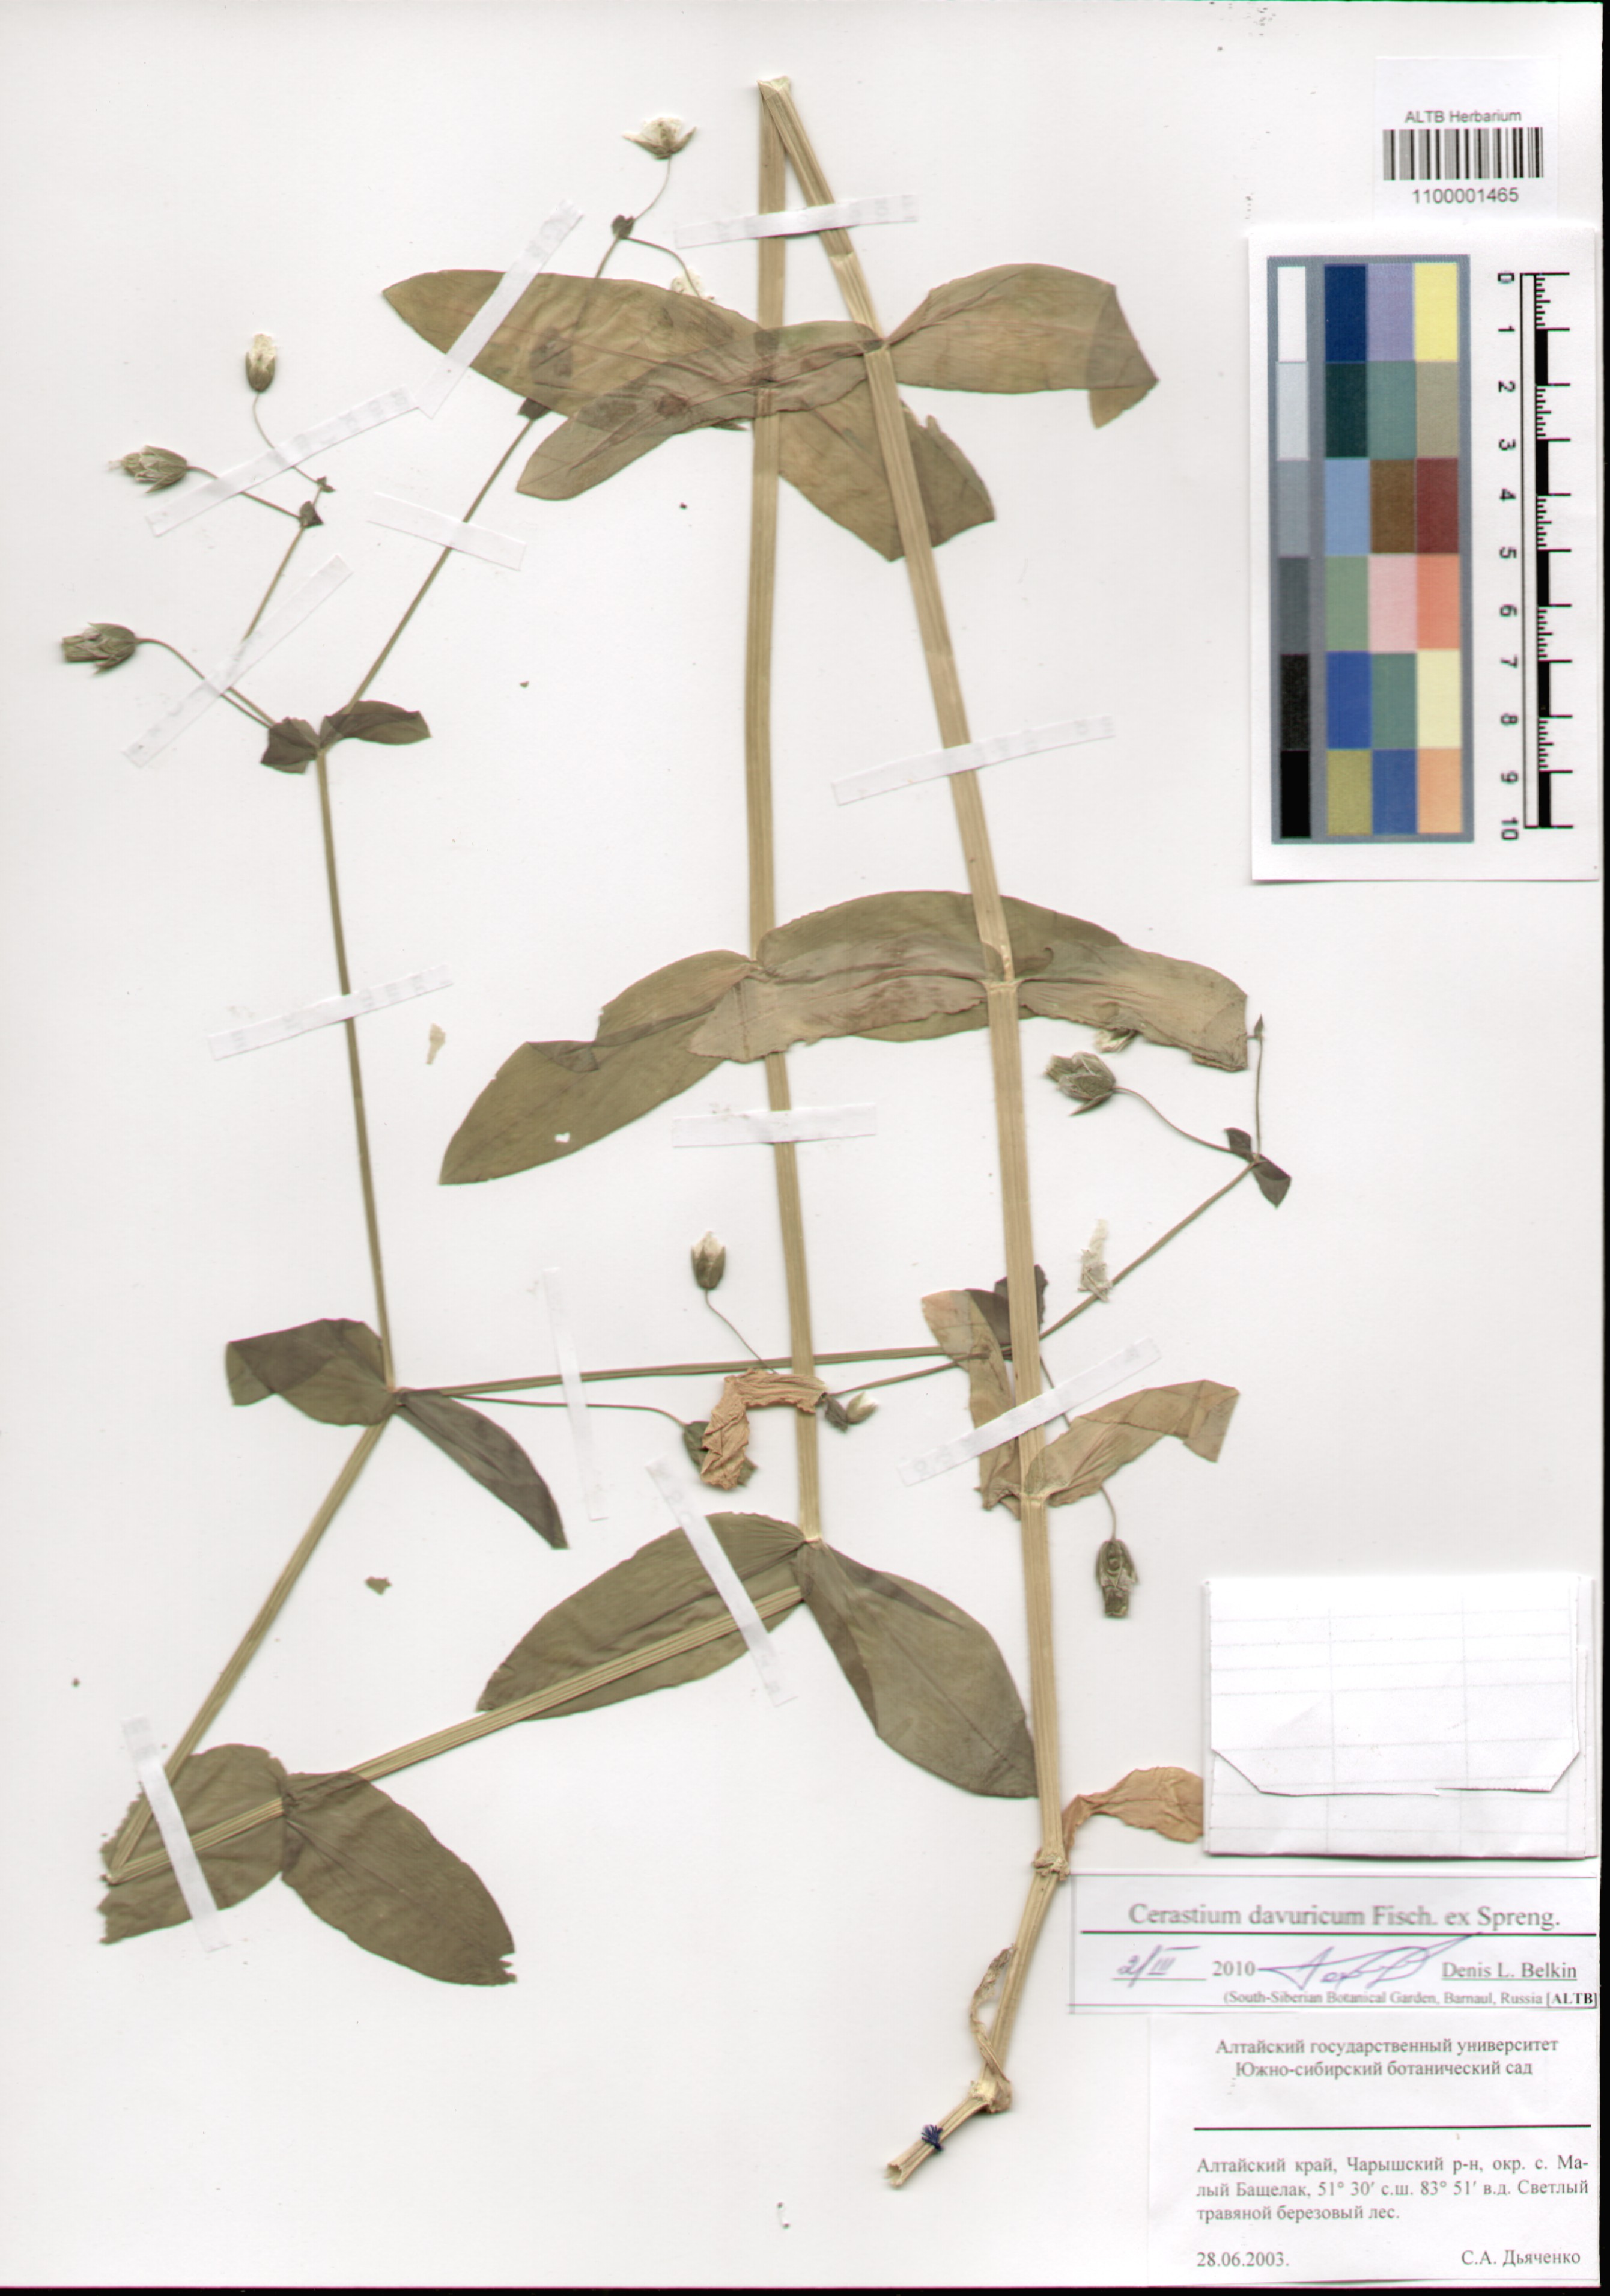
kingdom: Plantae
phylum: Tracheophyta
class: Magnoliopsida
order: Caryophyllales
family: Caryophyllaceae
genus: Dichodon
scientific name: Dichodon davuricum
